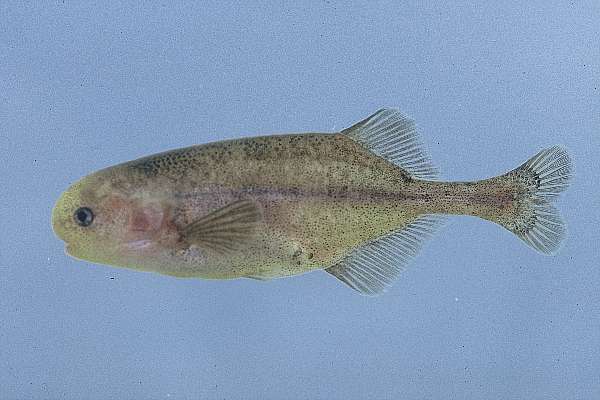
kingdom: Animalia
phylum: Chordata
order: Osteoglossiformes
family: Mormyridae
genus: Pollimyrus
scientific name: Pollimyrus castelnaui
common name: Dwarf stonebasher
